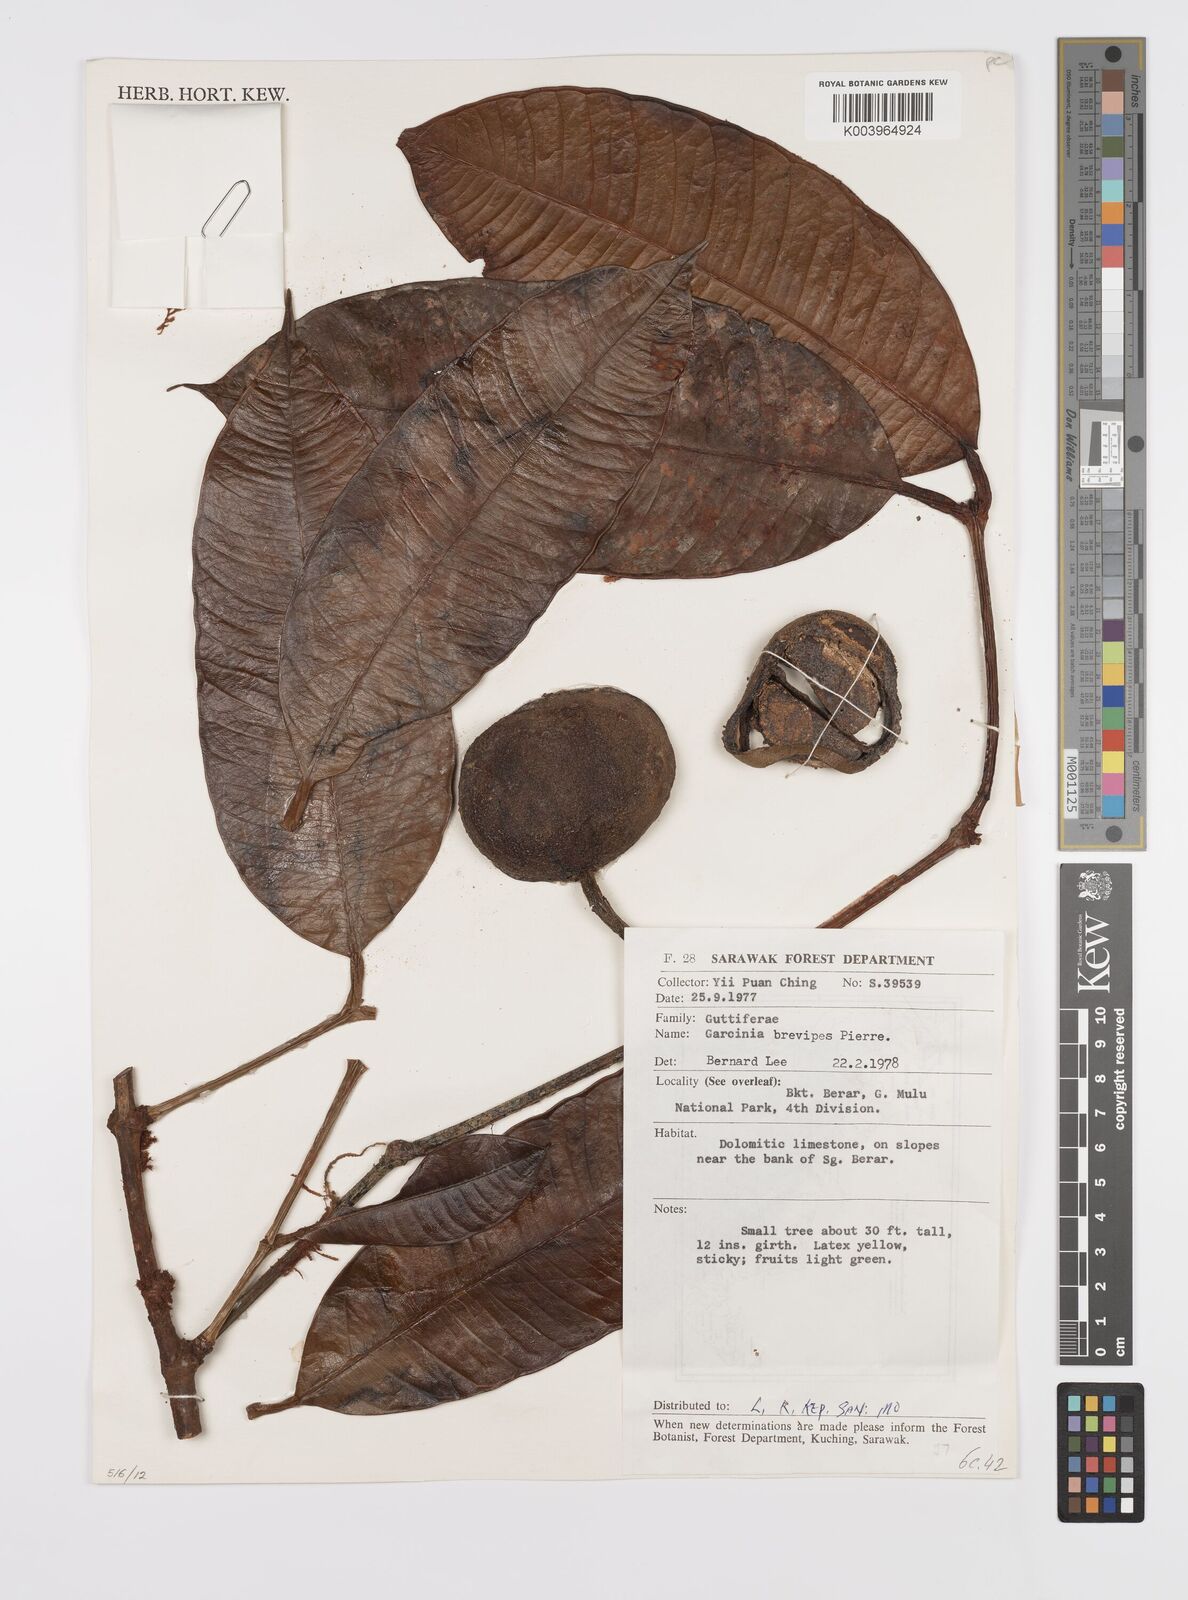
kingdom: Plantae
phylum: Tracheophyta
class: Magnoliopsida
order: Malpighiales
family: Clusiaceae
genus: Garcinia
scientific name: Garcinia brevipes
